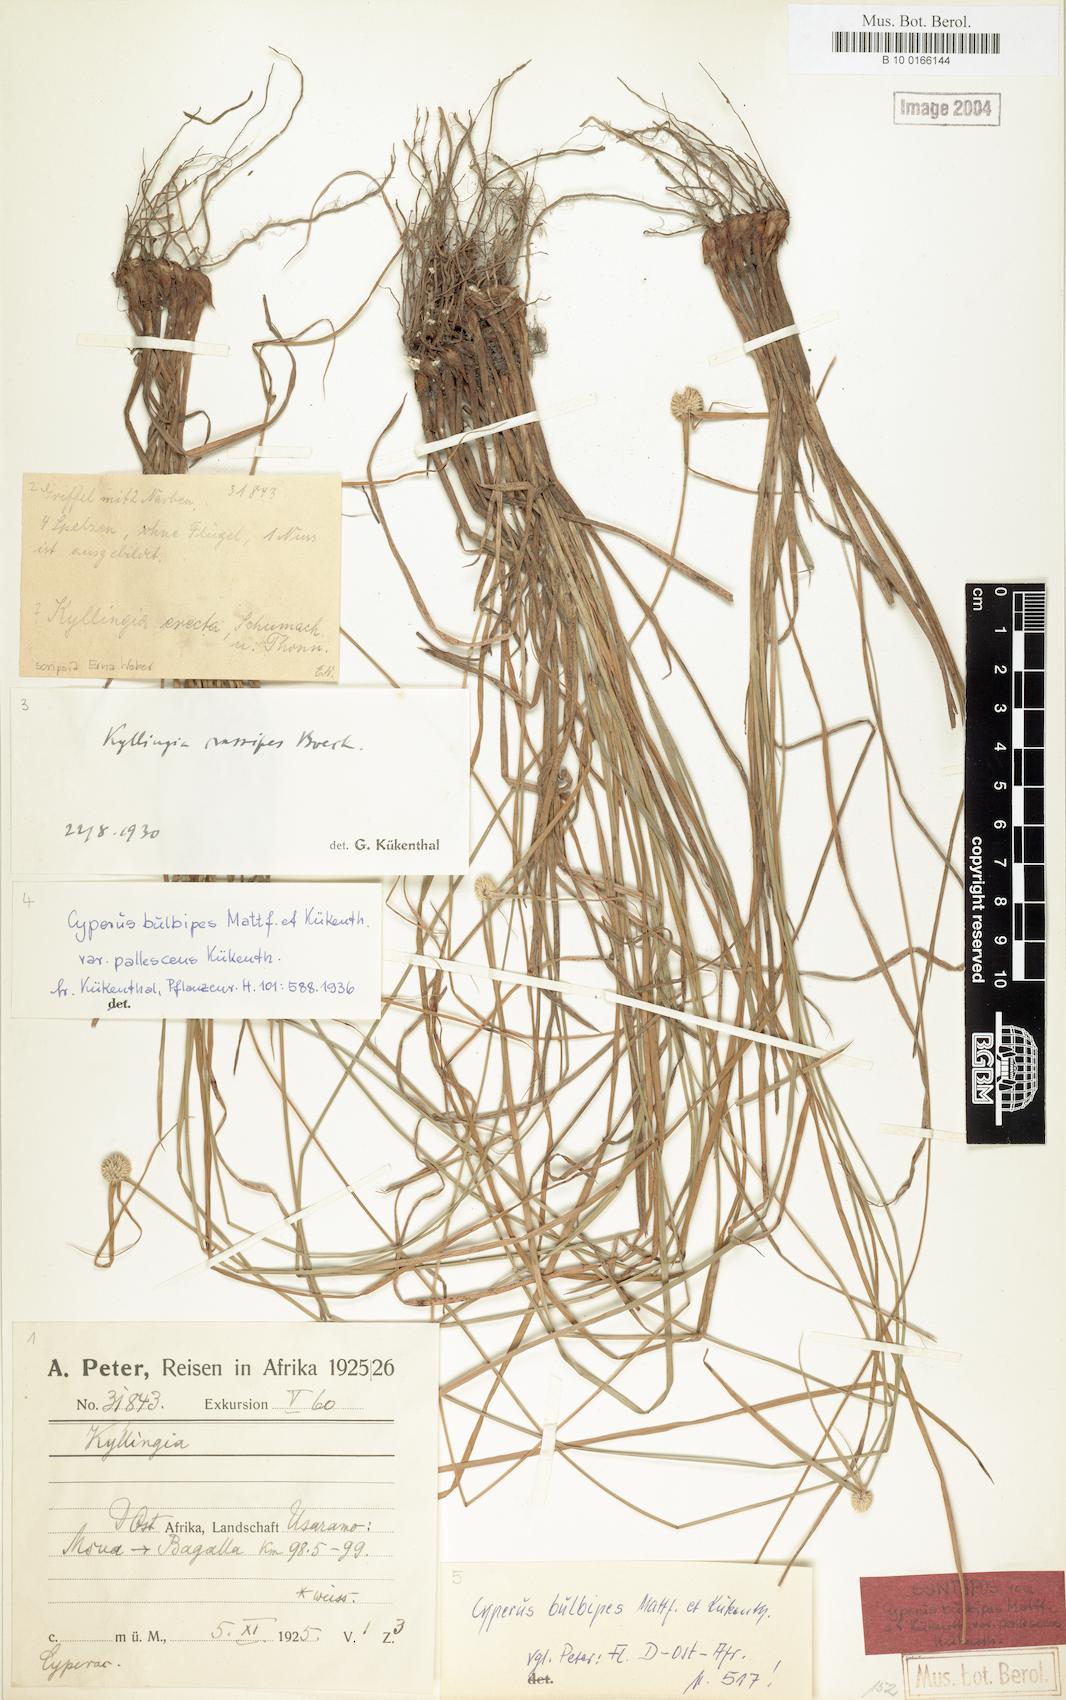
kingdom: Plantae
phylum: Tracheophyta
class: Liliopsida
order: Poales
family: Cyperaceae
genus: Cyperus
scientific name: Cyperus bulbipes
